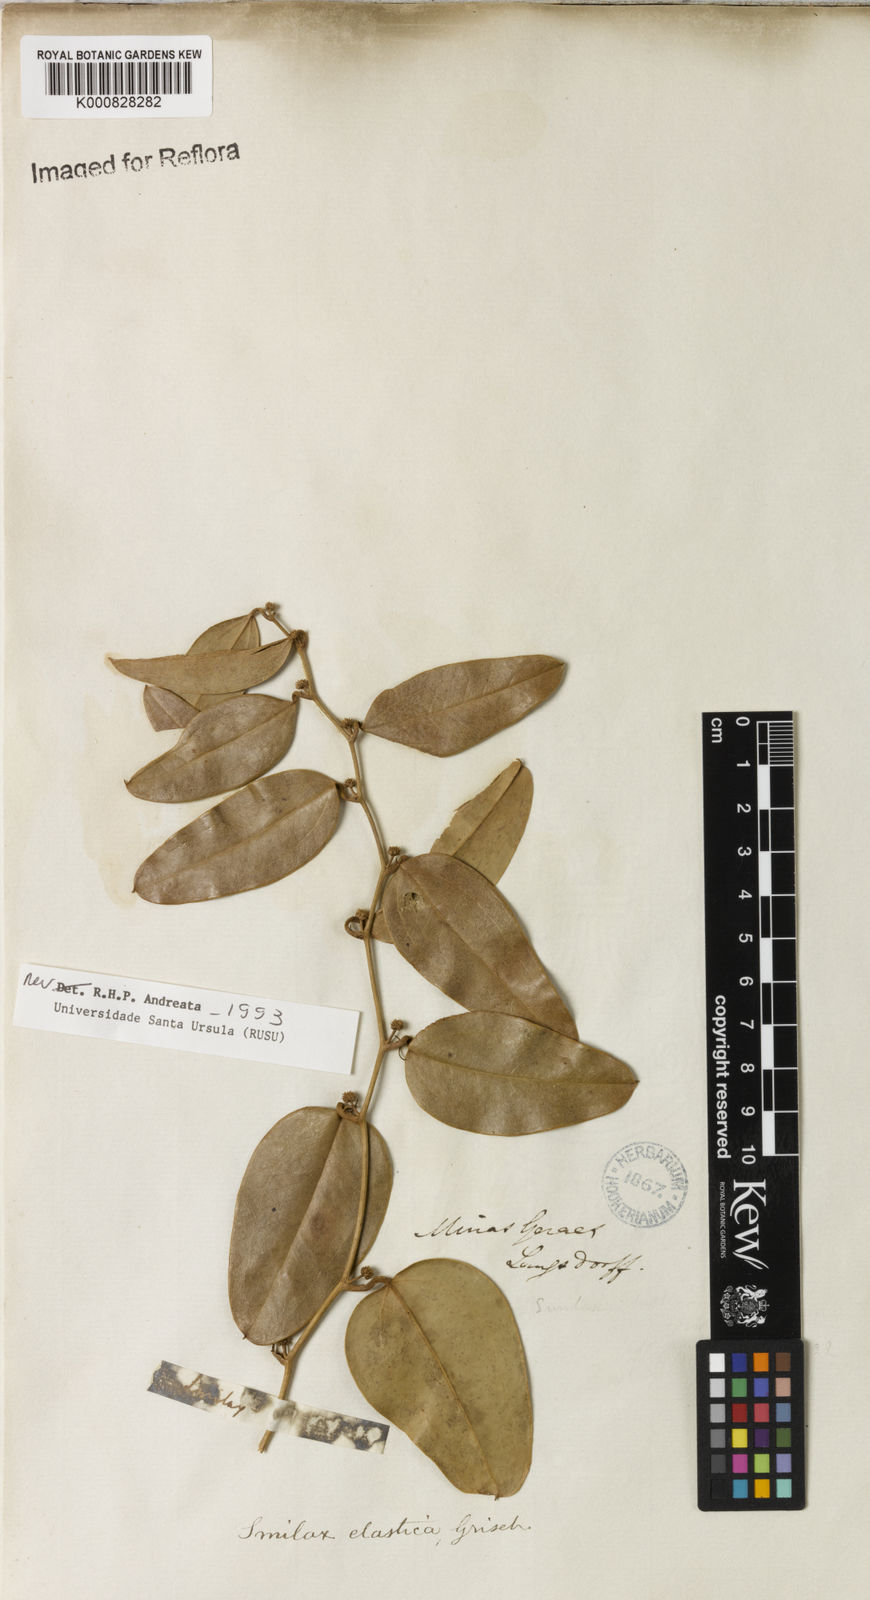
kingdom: Plantae
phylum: Tracheophyta
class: Liliopsida
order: Liliales
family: Smilacaceae
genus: Smilax
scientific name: Smilax elastica
